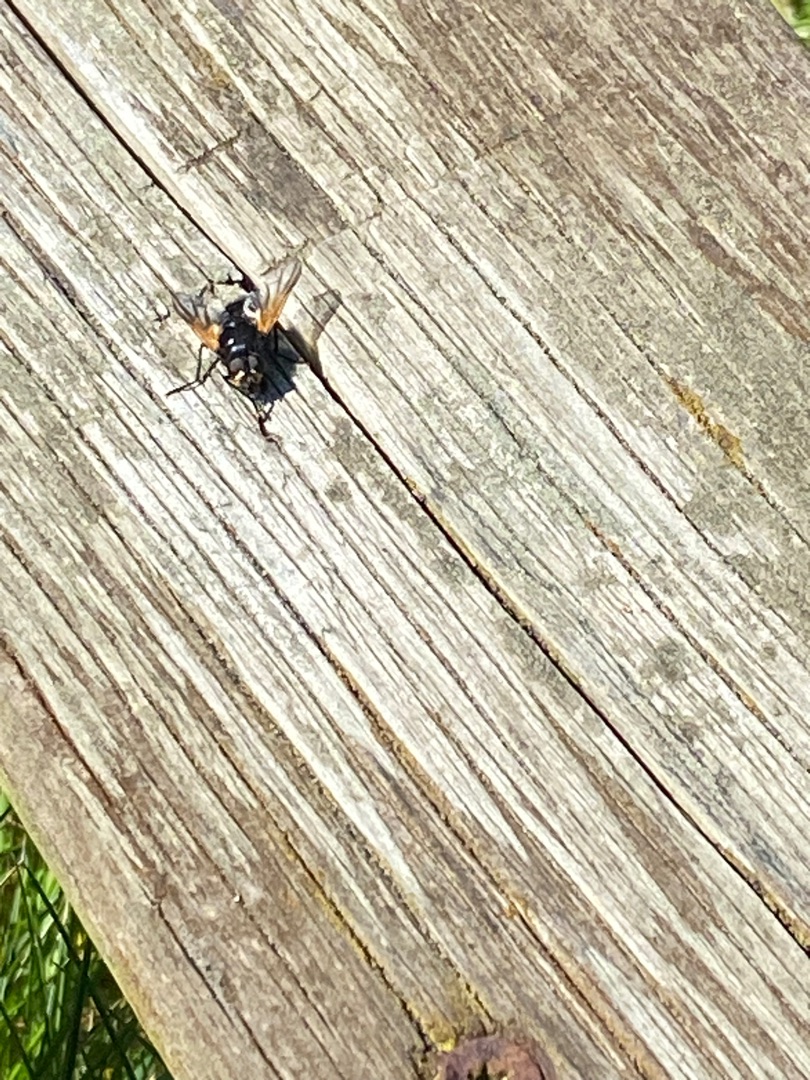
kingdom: Animalia
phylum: Arthropoda
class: Insecta
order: Diptera
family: Muscidae
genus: Mesembrina
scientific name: Mesembrina meridiana
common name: Gulvinget flue
